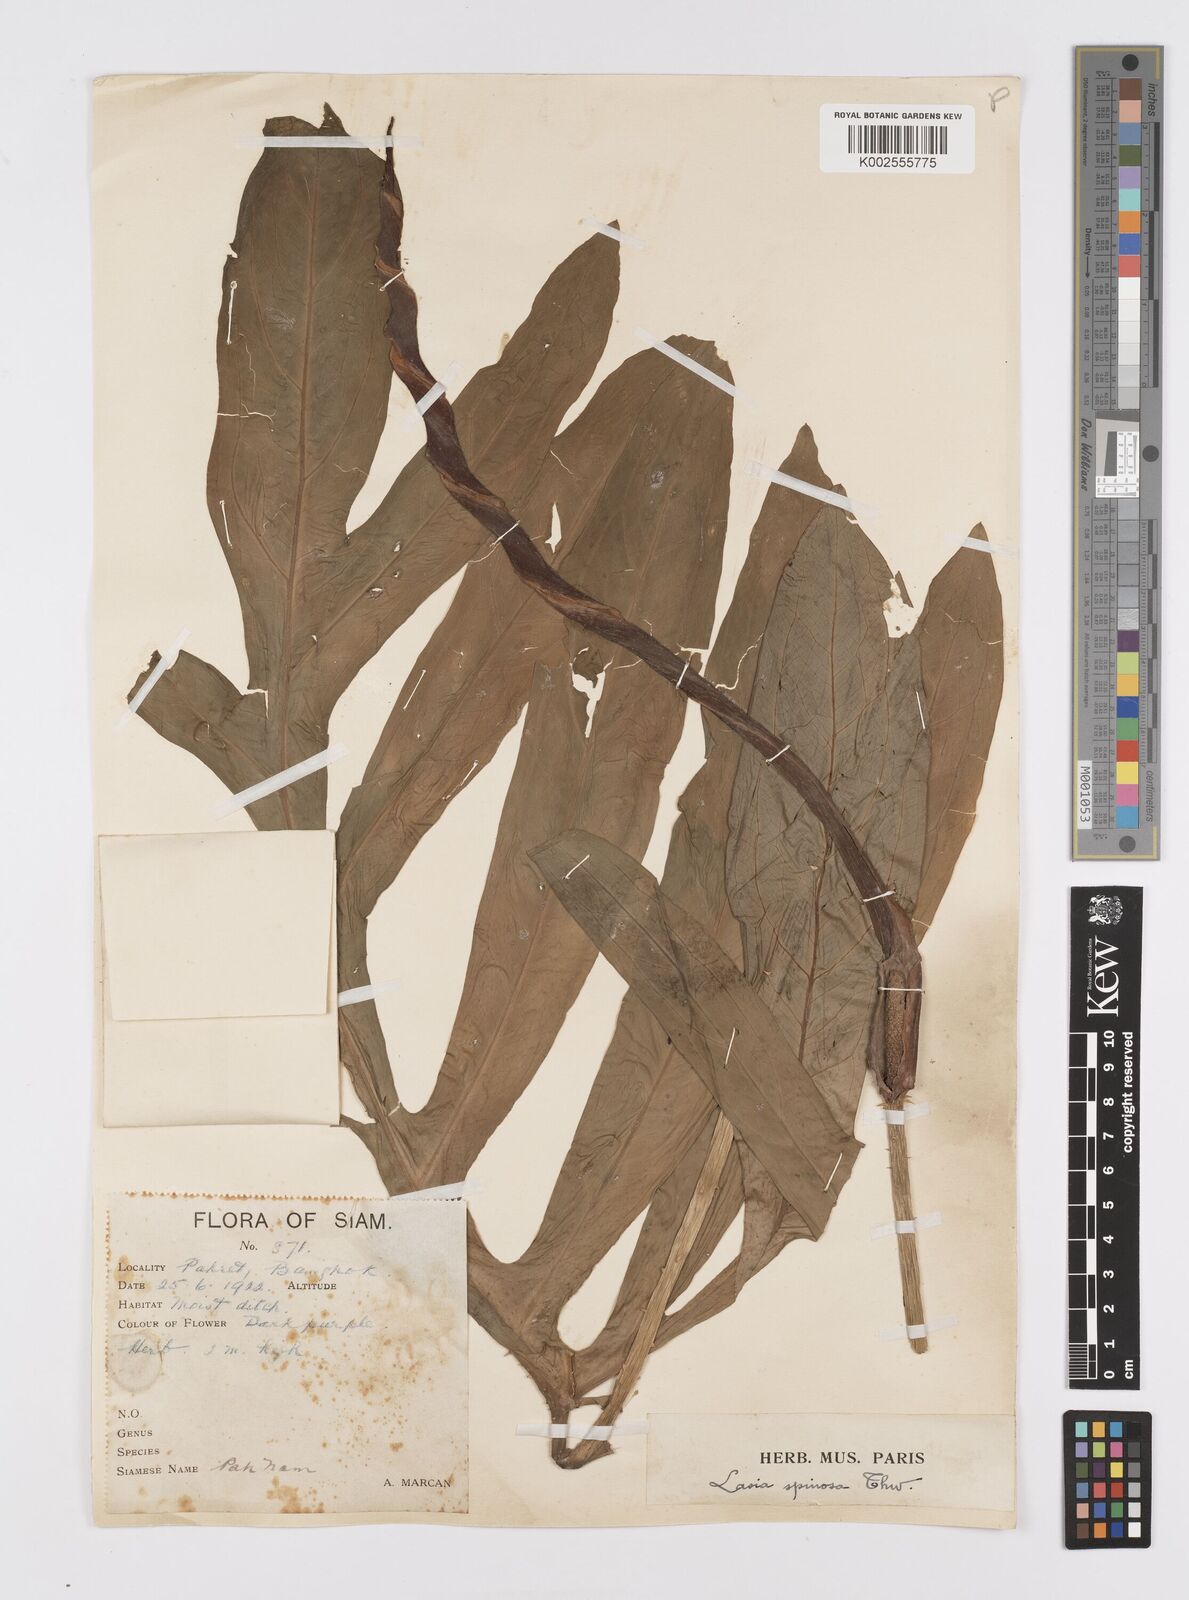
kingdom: Plantae
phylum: Tracheophyta
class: Liliopsida
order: Alismatales
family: Araceae
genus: Lasia
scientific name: Lasia spinosa
